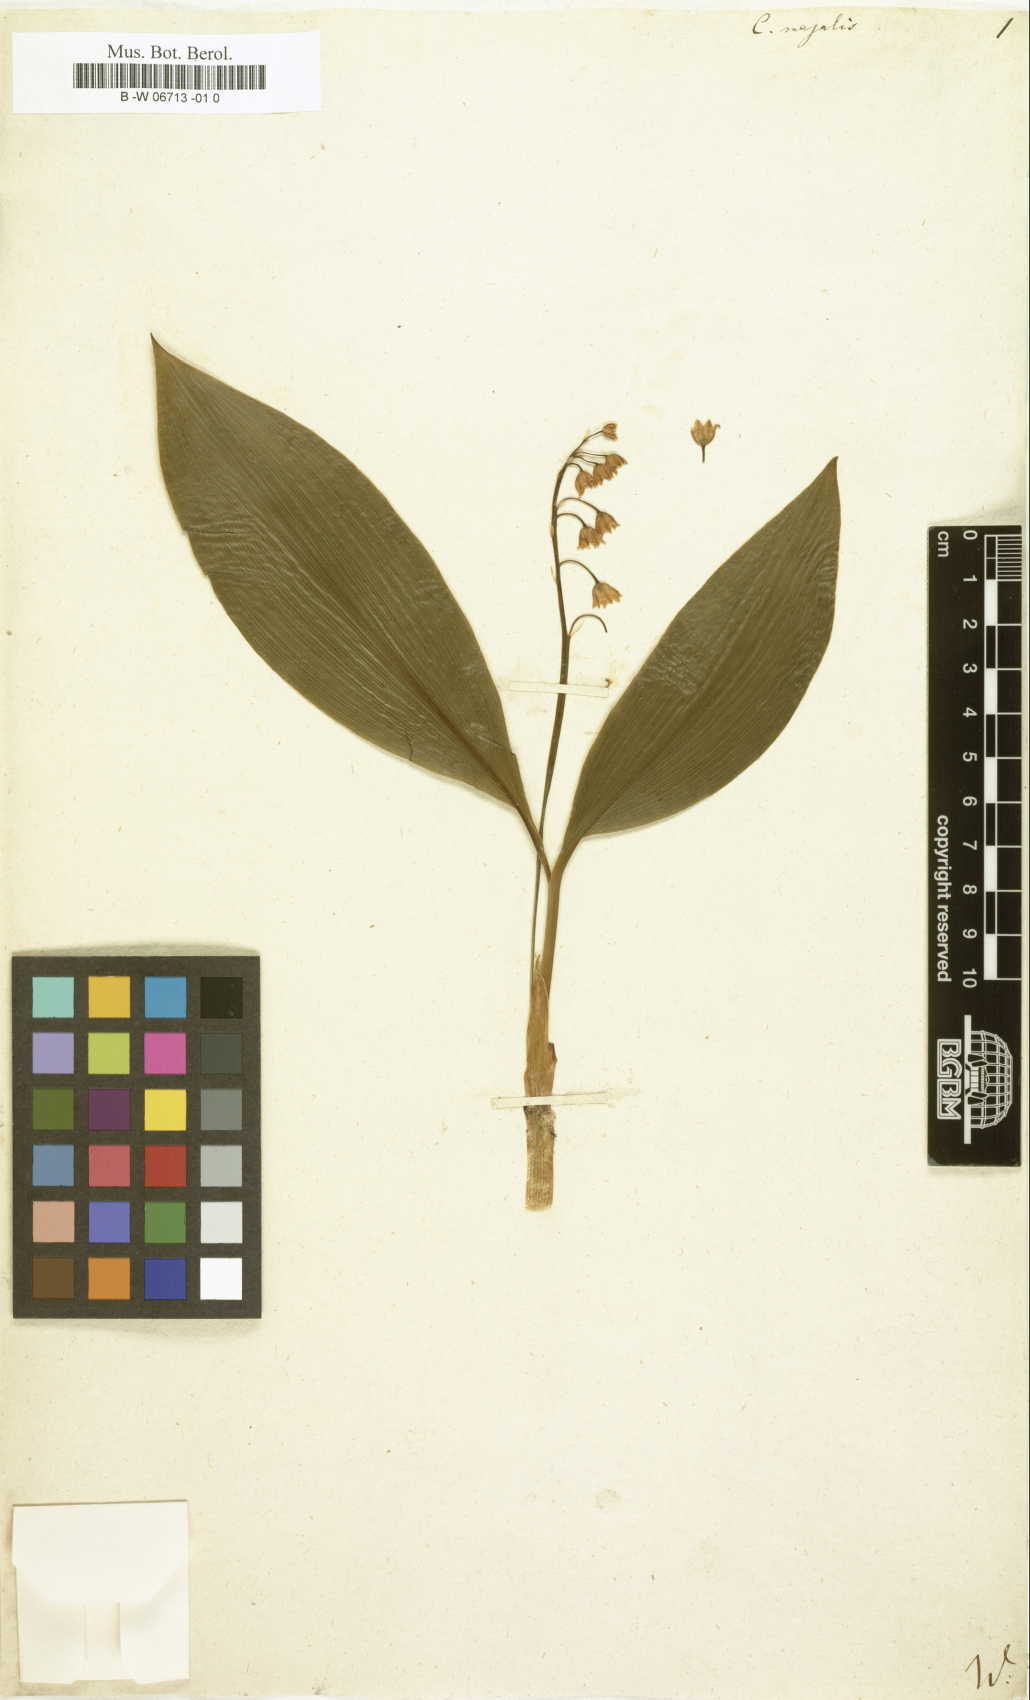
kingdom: Plantae
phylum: Tracheophyta
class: Liliopsida
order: Asparagales
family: Asparagaceae
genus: Convallaria
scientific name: Convallaria majalis
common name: Lily-of-the-valley
